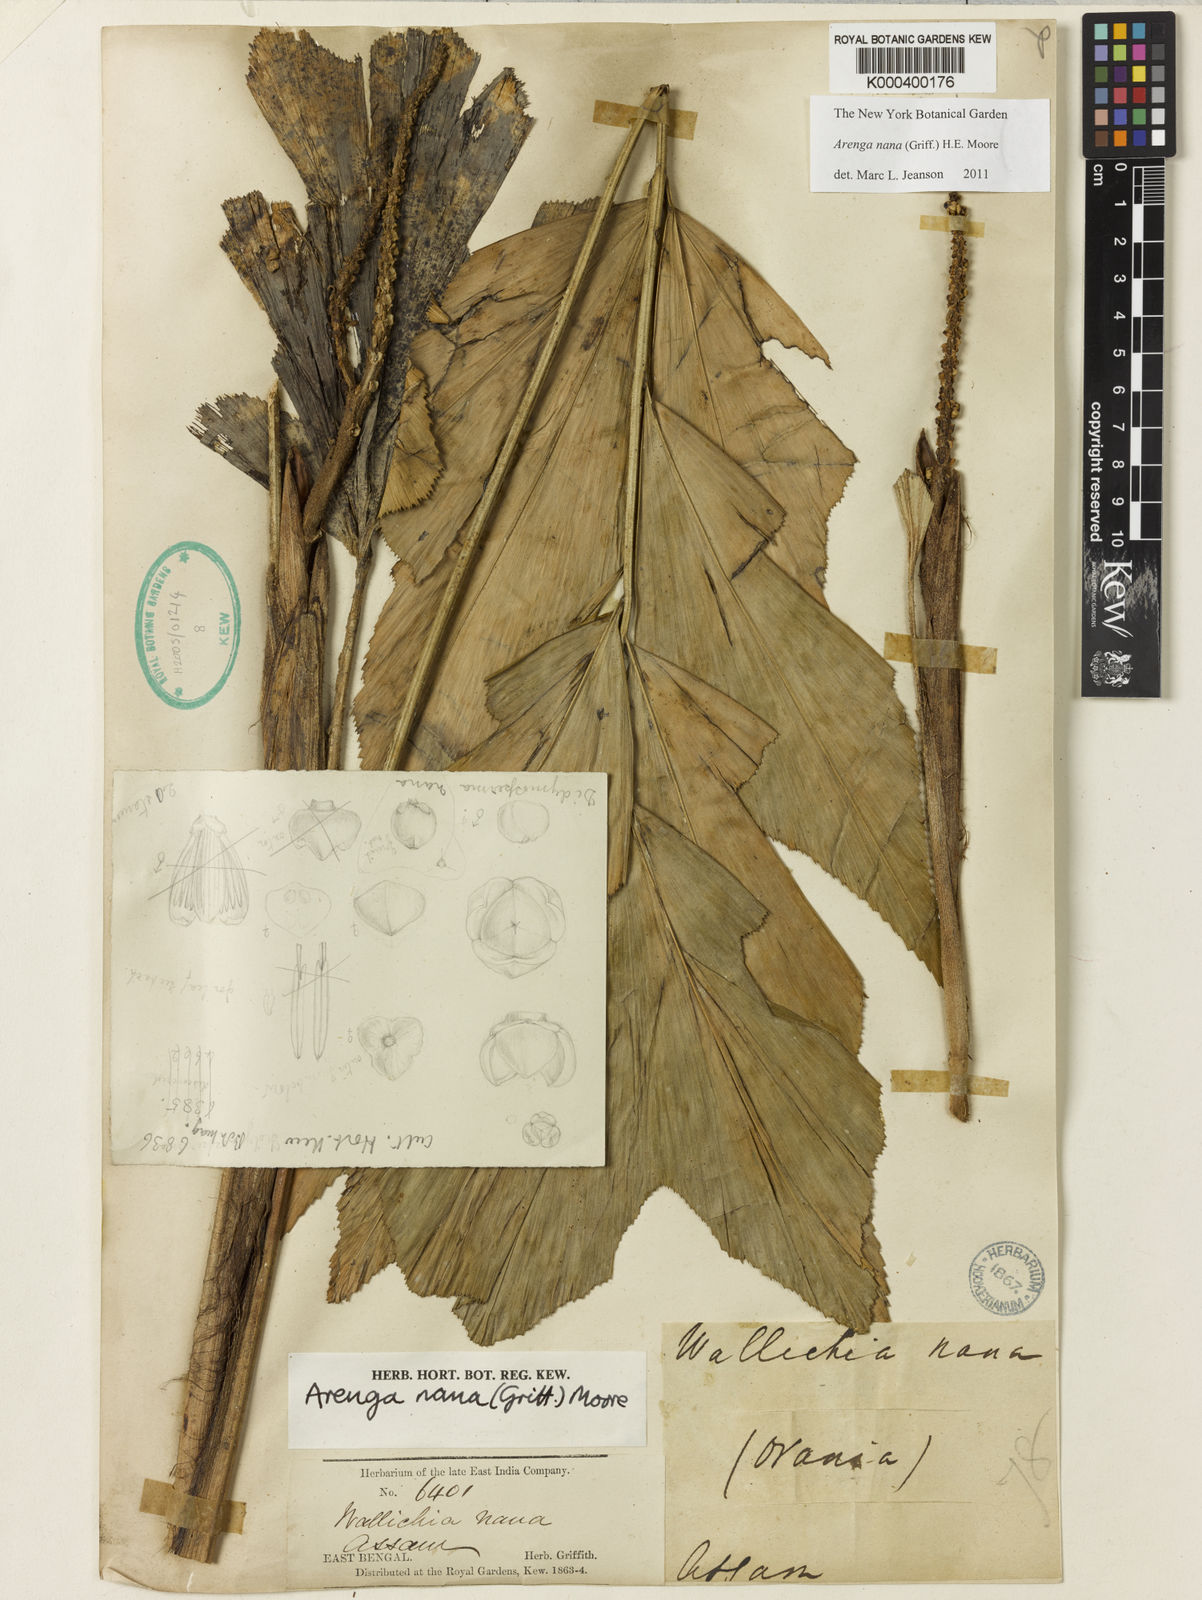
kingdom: Plantae
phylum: Tracheophyta
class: Liliopsida
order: Arecales
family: Arecaceae
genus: Wallichia
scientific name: Wallichia nana
